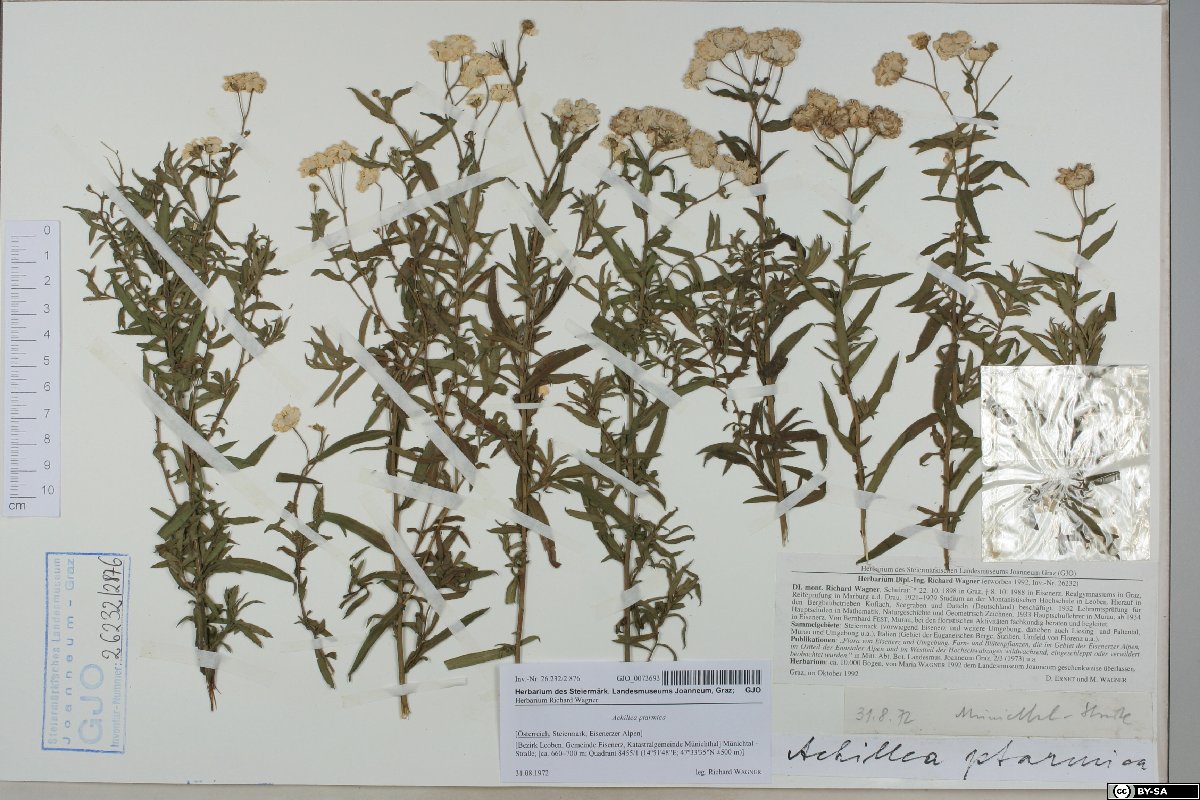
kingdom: Plantae
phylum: Tracheophyta
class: Magnoliopsida
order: Asterales
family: Asteraceae
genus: Achillea
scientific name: Achillea ptarmica
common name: Sneezeweed
